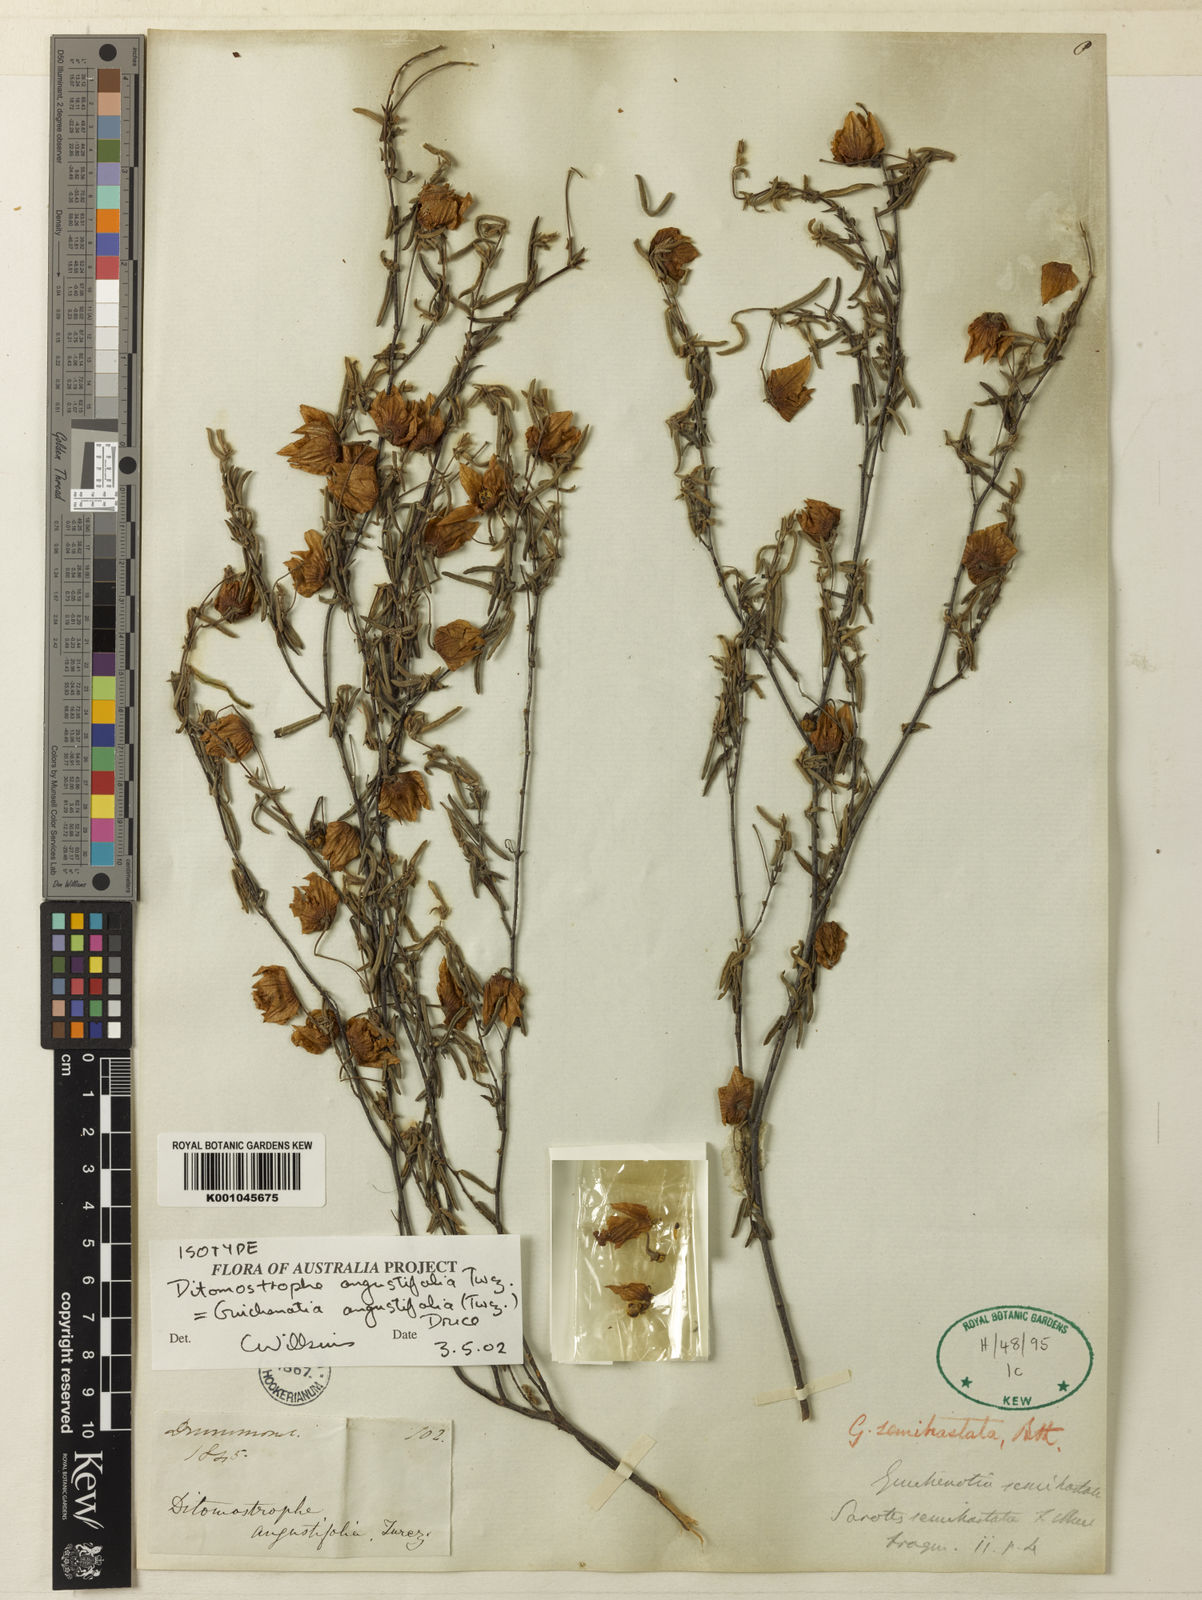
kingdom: Plantae
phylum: Tracheophyta
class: Magnoliopsida
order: Malvales
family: Malvaceae
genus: Guichenotia
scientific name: Guichenotia angustifolia
